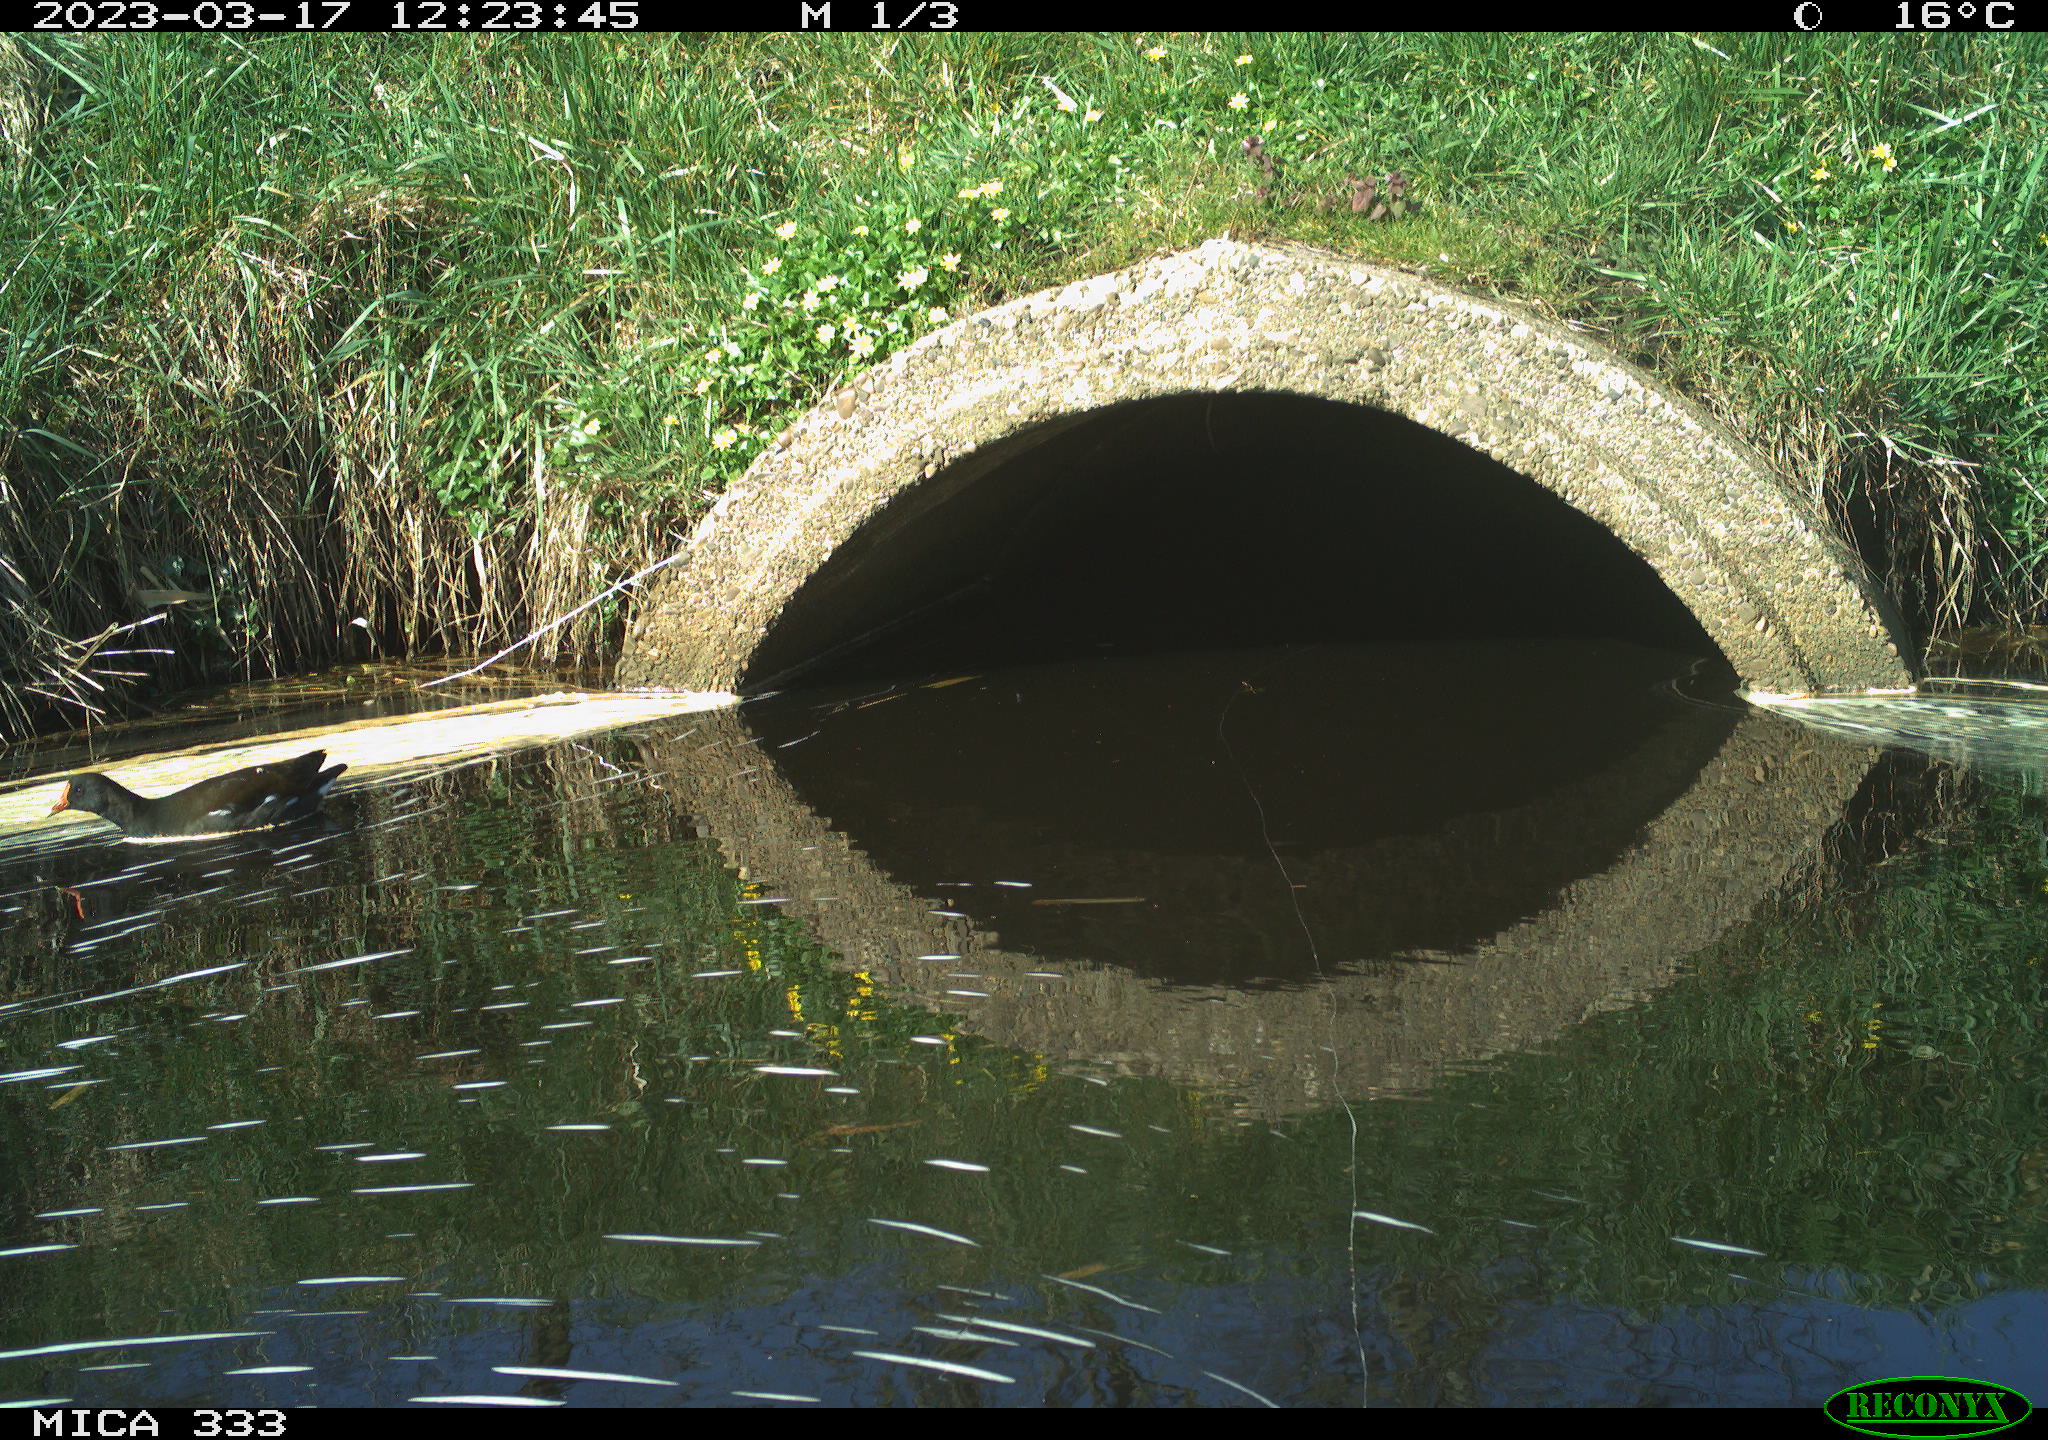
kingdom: Animalia
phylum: Chordata
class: Aves
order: Gruiformes
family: Rallidae
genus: Gallinula
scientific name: Gallinula chloropus
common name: Common moorhen
